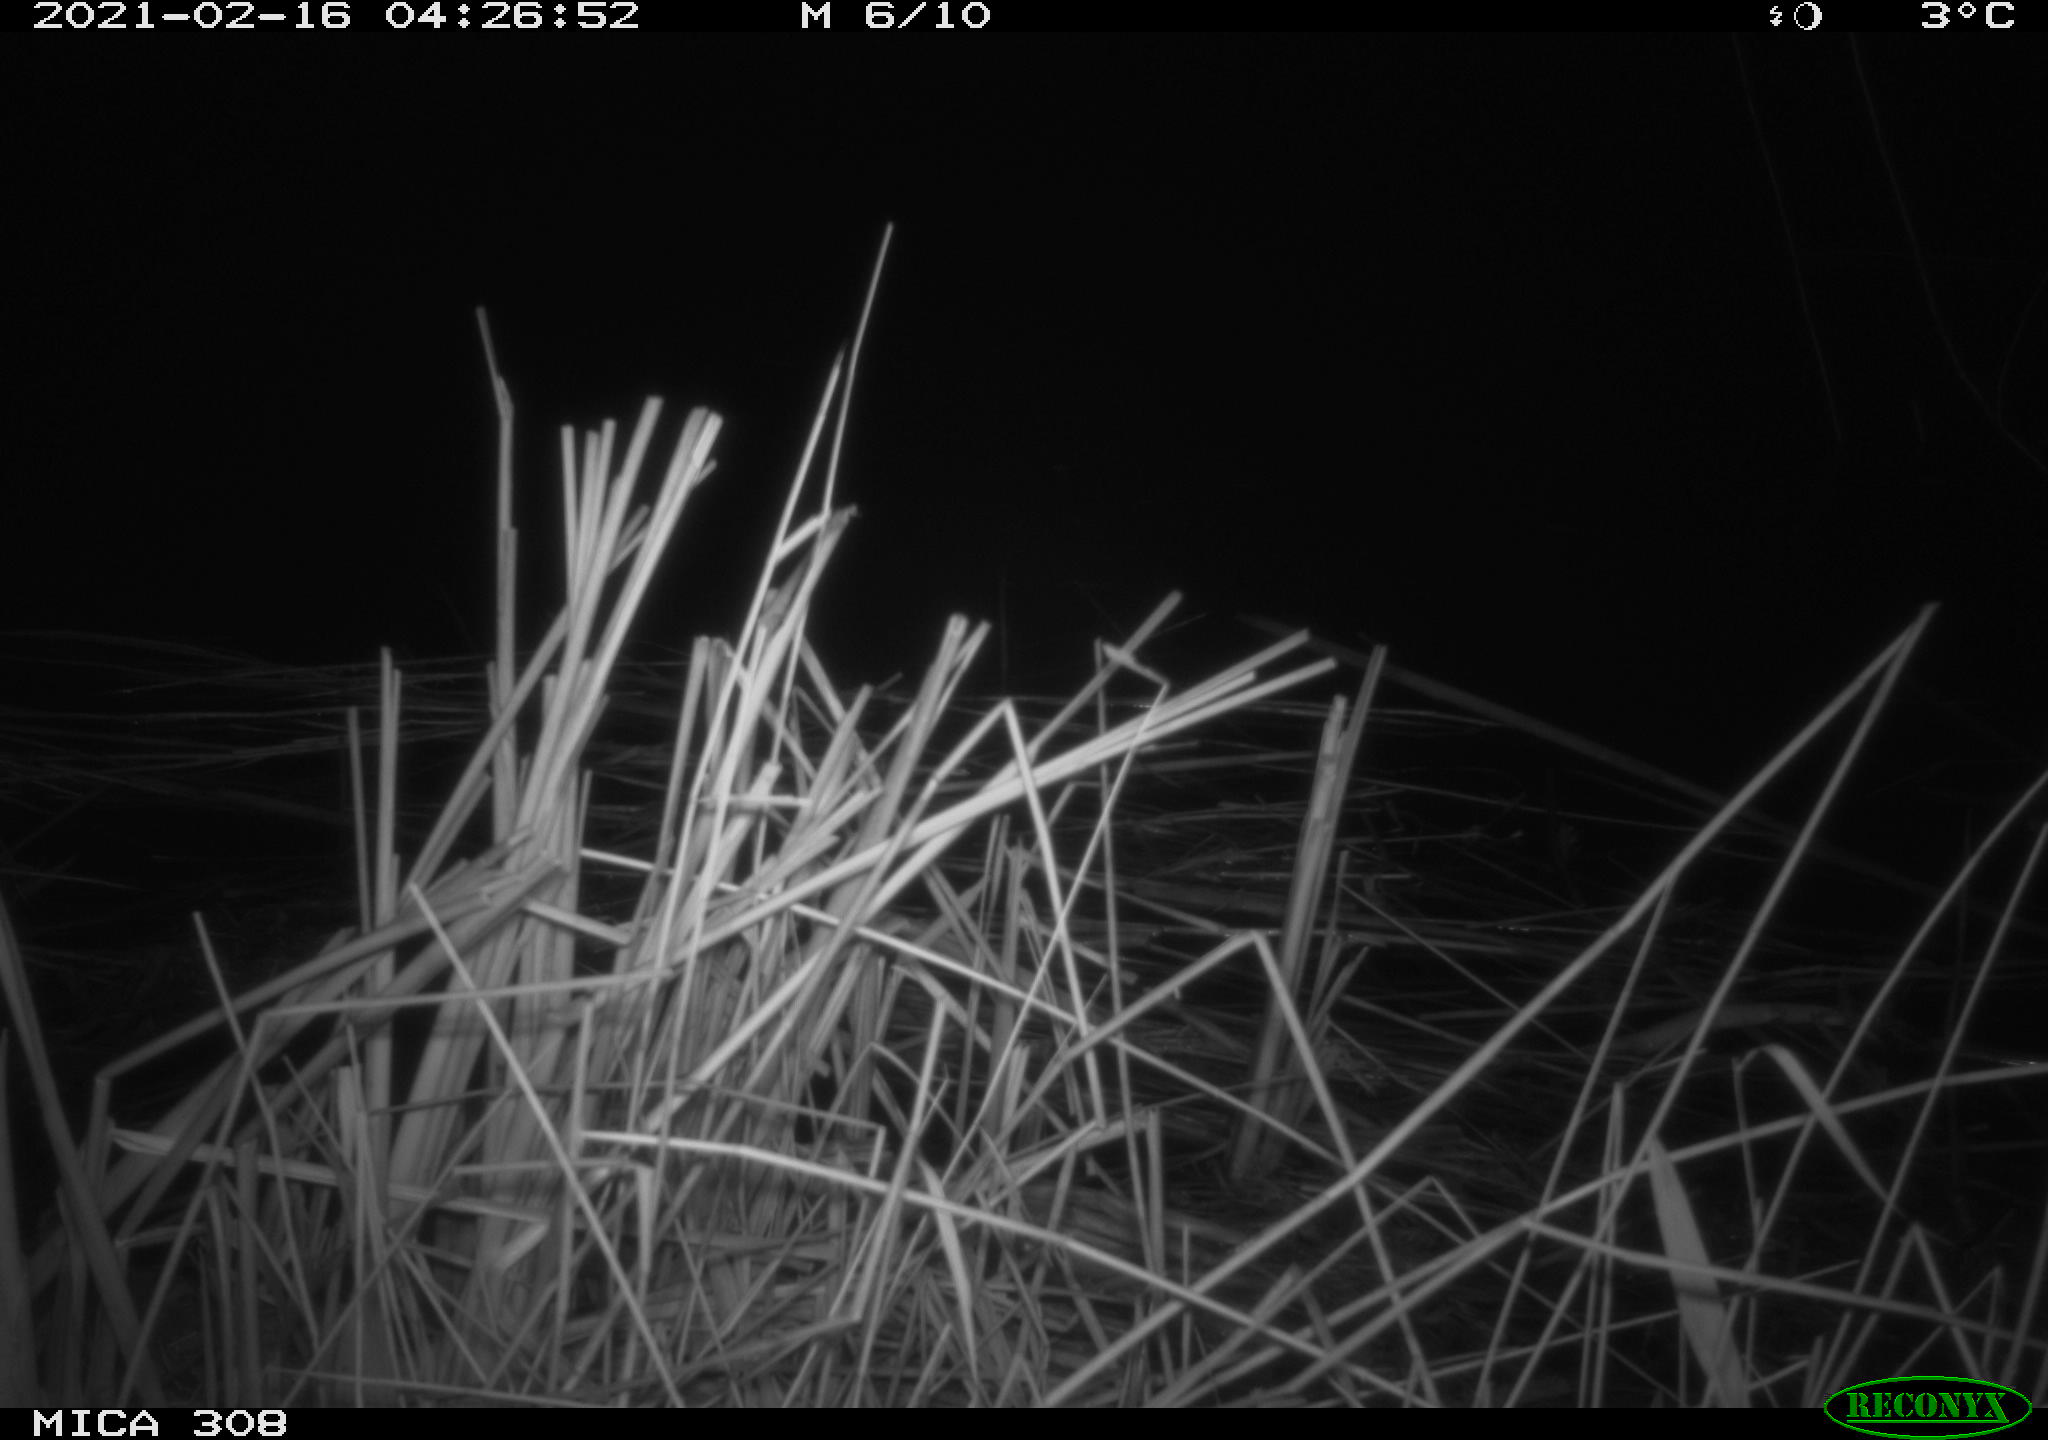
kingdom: Animalia
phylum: Chordata
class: Mammalia
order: Rodentia
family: Muridae
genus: Rattus
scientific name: Rattus norvegicus
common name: Brown rat
